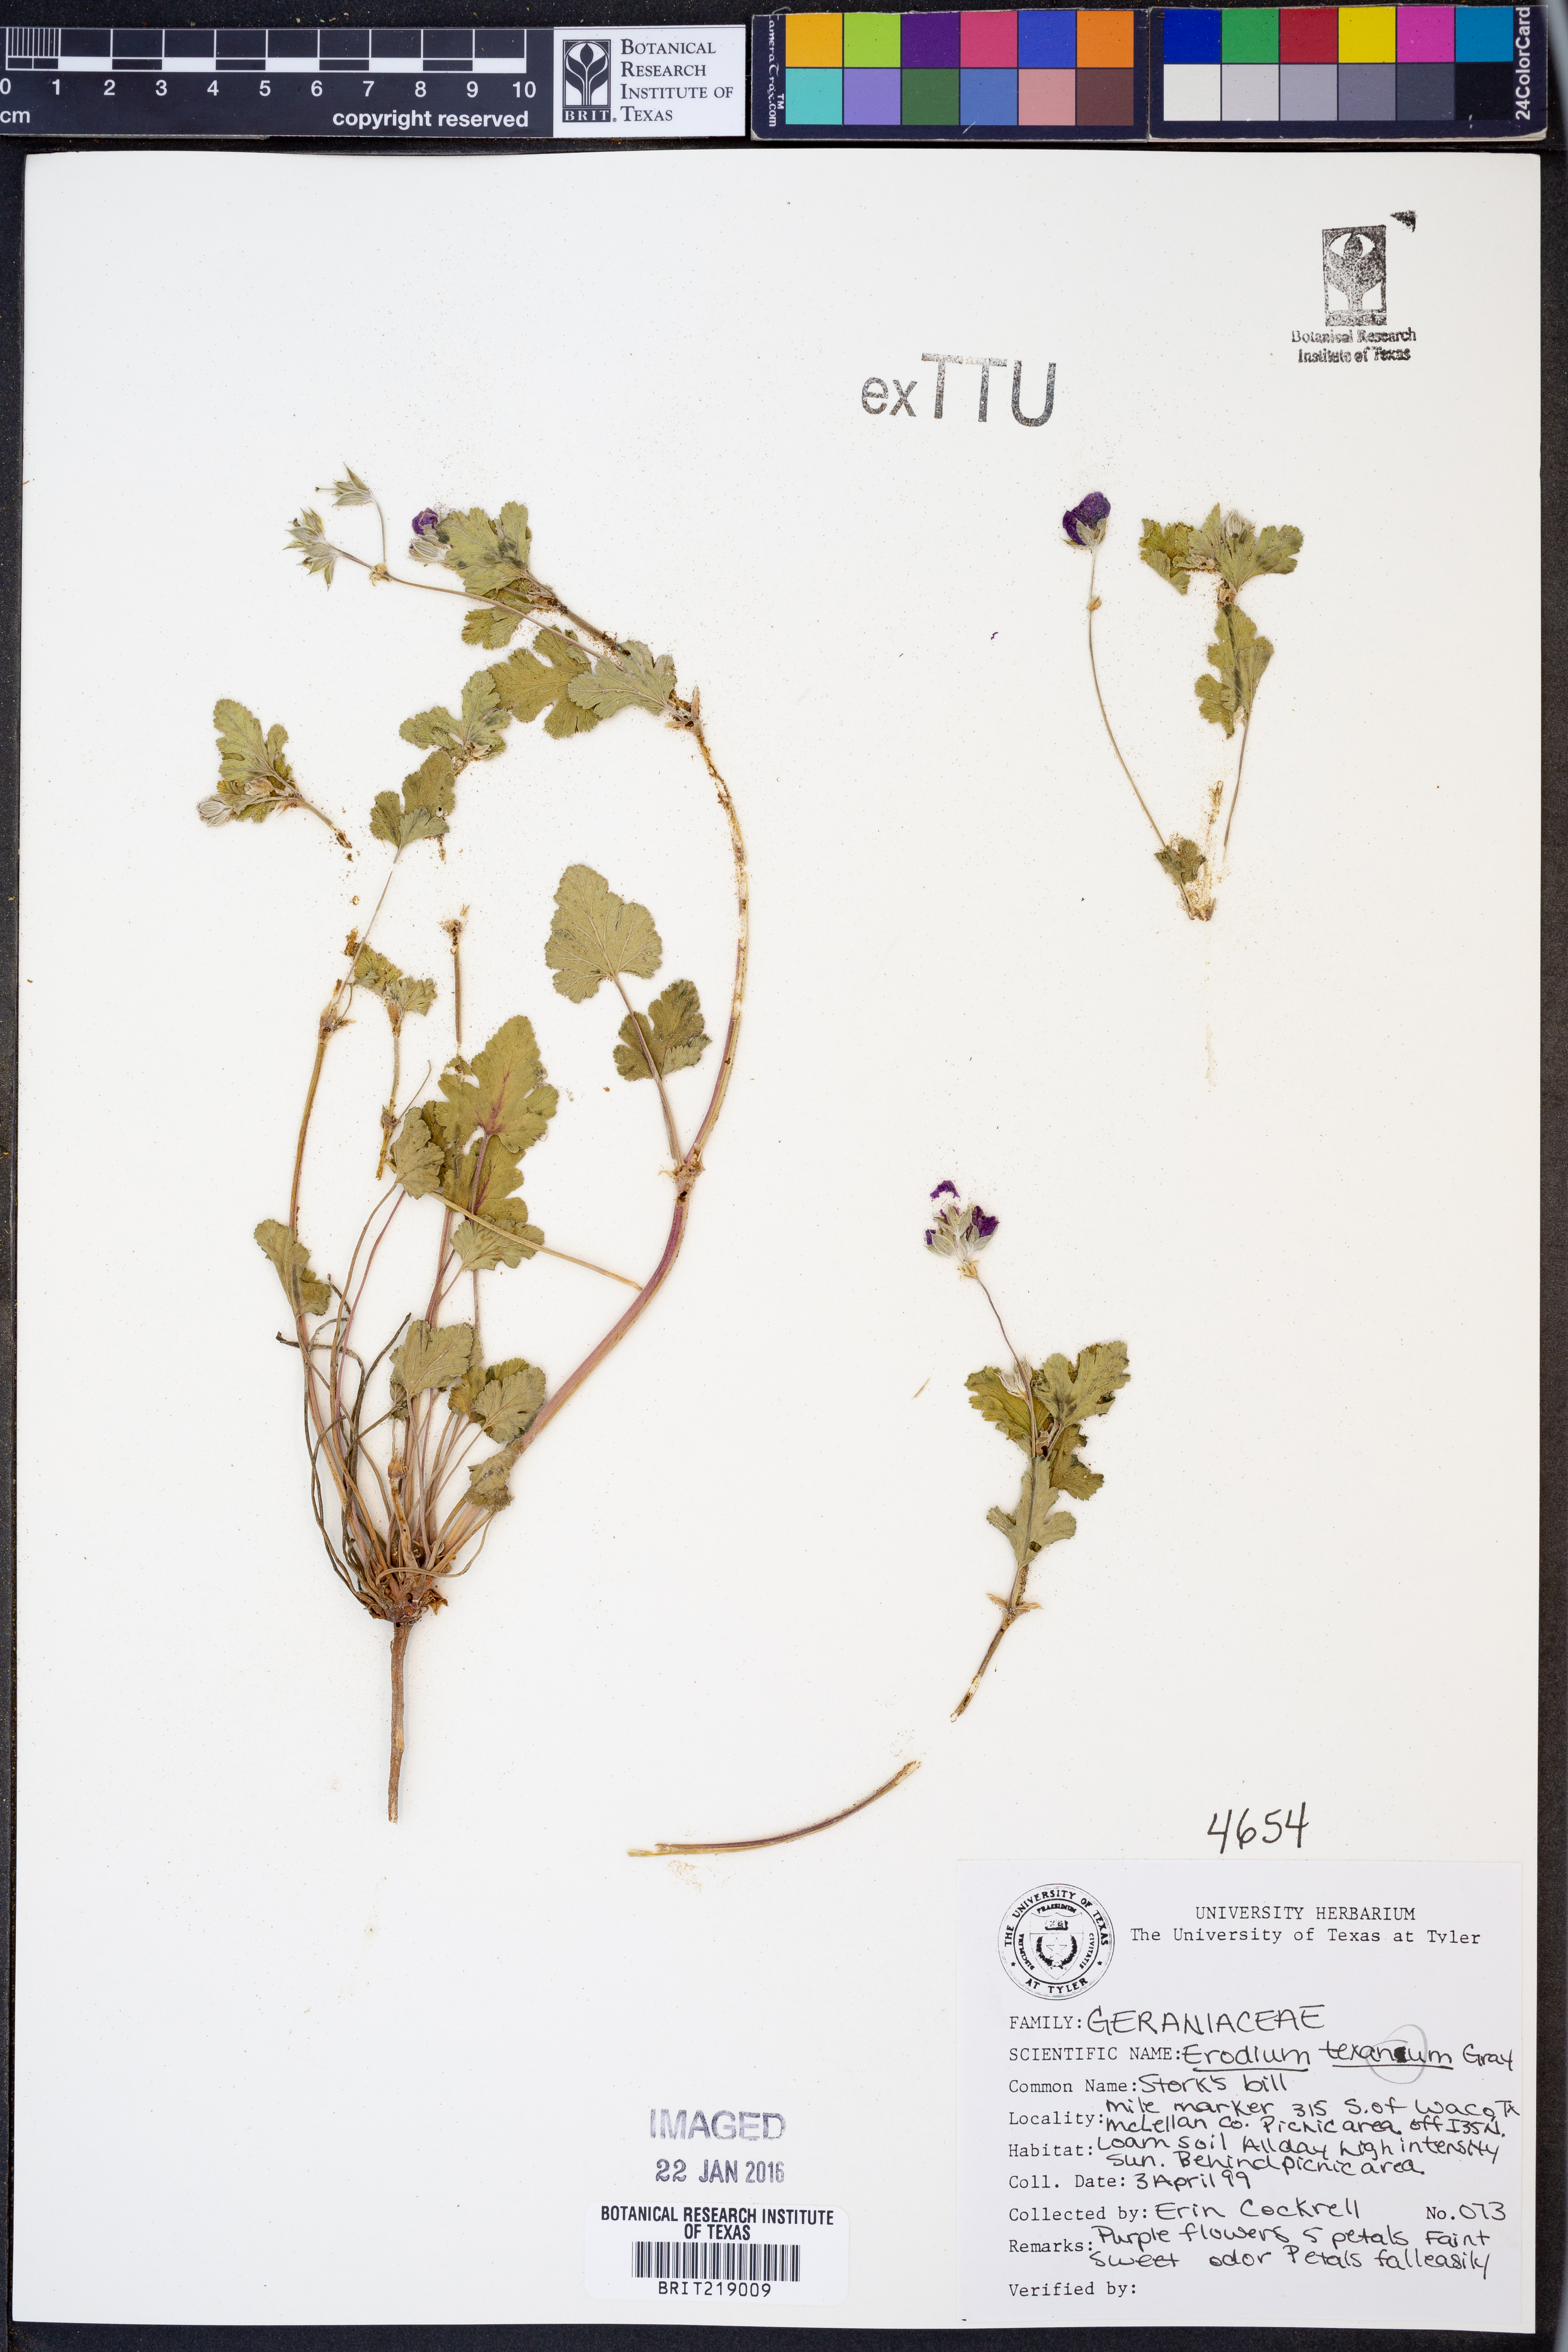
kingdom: Plantae
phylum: Tracheophyta
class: Magnoliopsida
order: Geraniales
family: Geraniaceae
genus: Erodium
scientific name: Erodium texanum
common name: Texas stork's-bill
